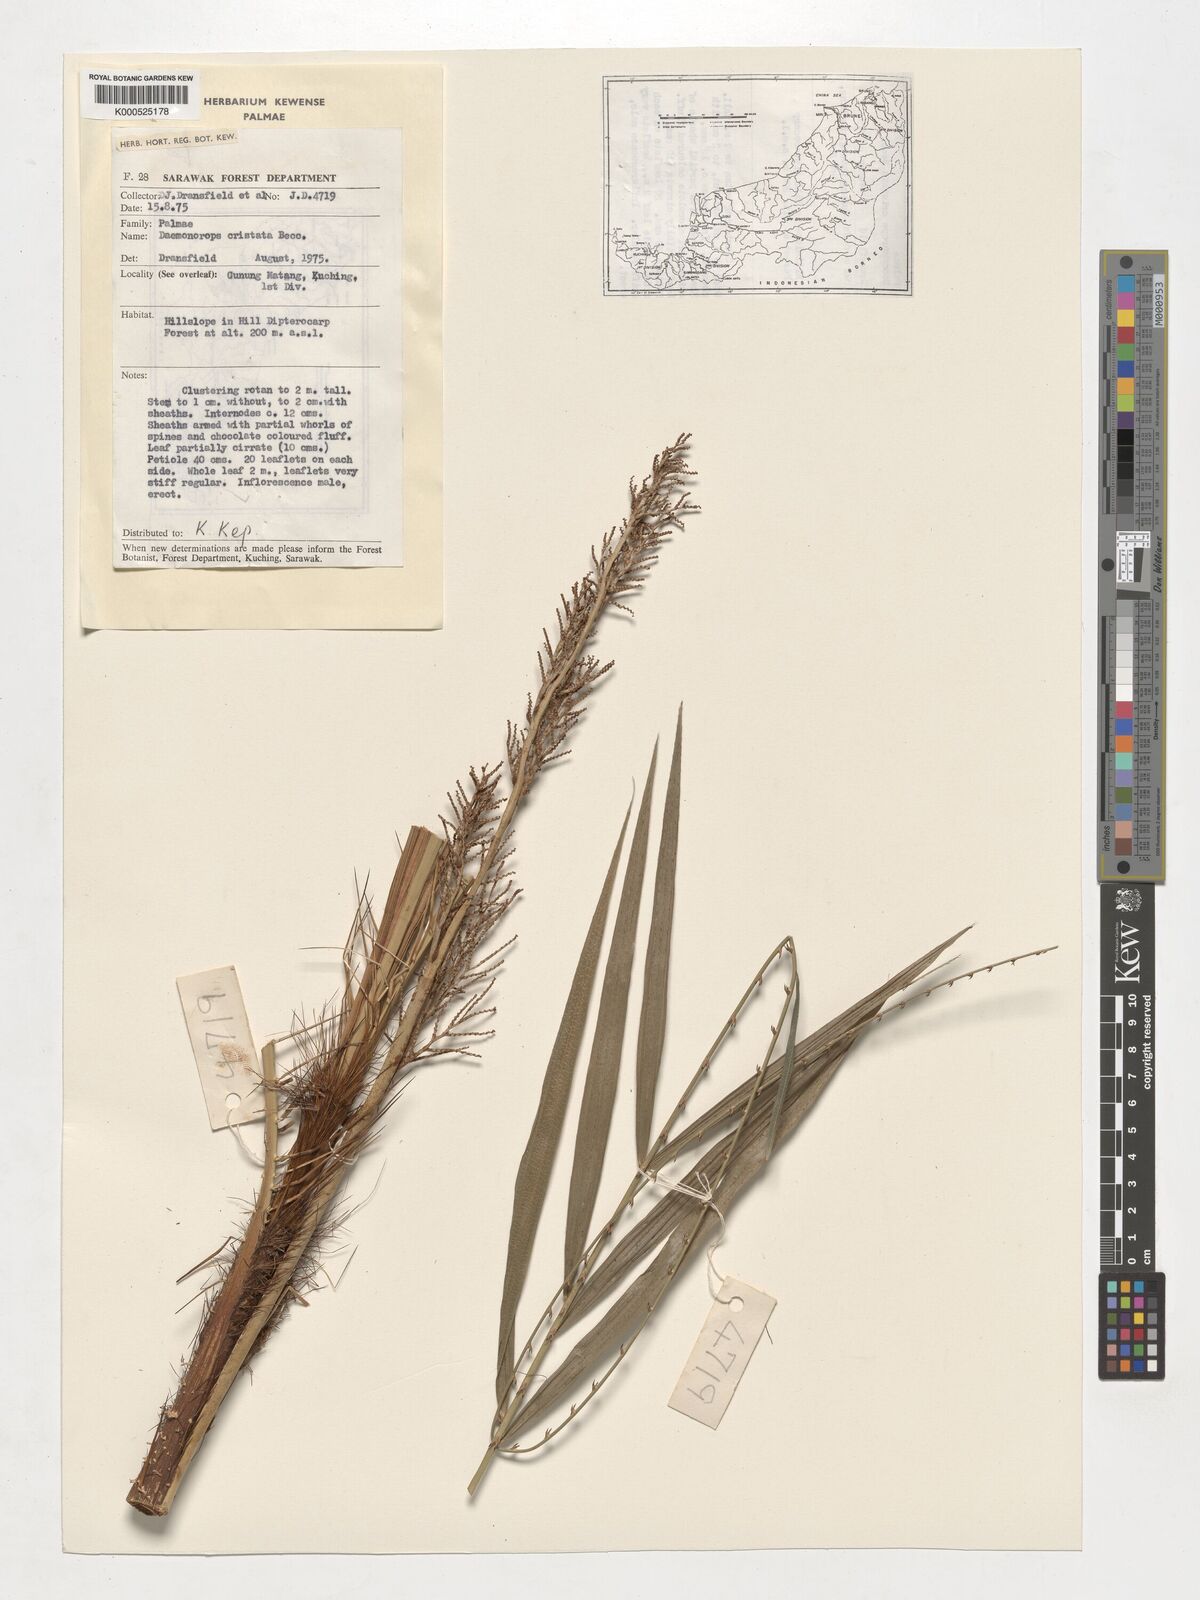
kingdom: Plantae
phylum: Tracheophyta
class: Liliopsida
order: Arecales
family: Arecaceae
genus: Calamus
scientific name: Calamus cristatus
